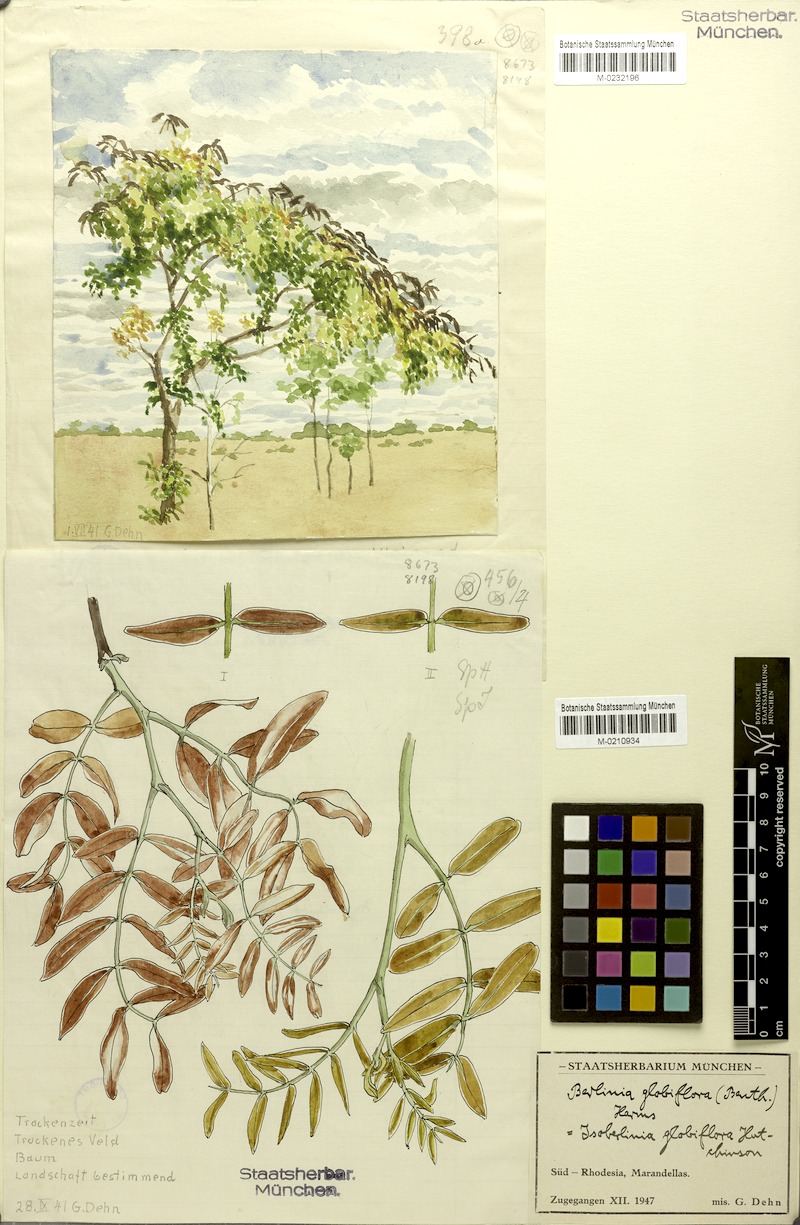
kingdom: Plantae
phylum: Tracheophyta
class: Magnoliopsida
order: Fabales
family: Fabaceae
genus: Julbernardia
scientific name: Julbernardia globiflora
